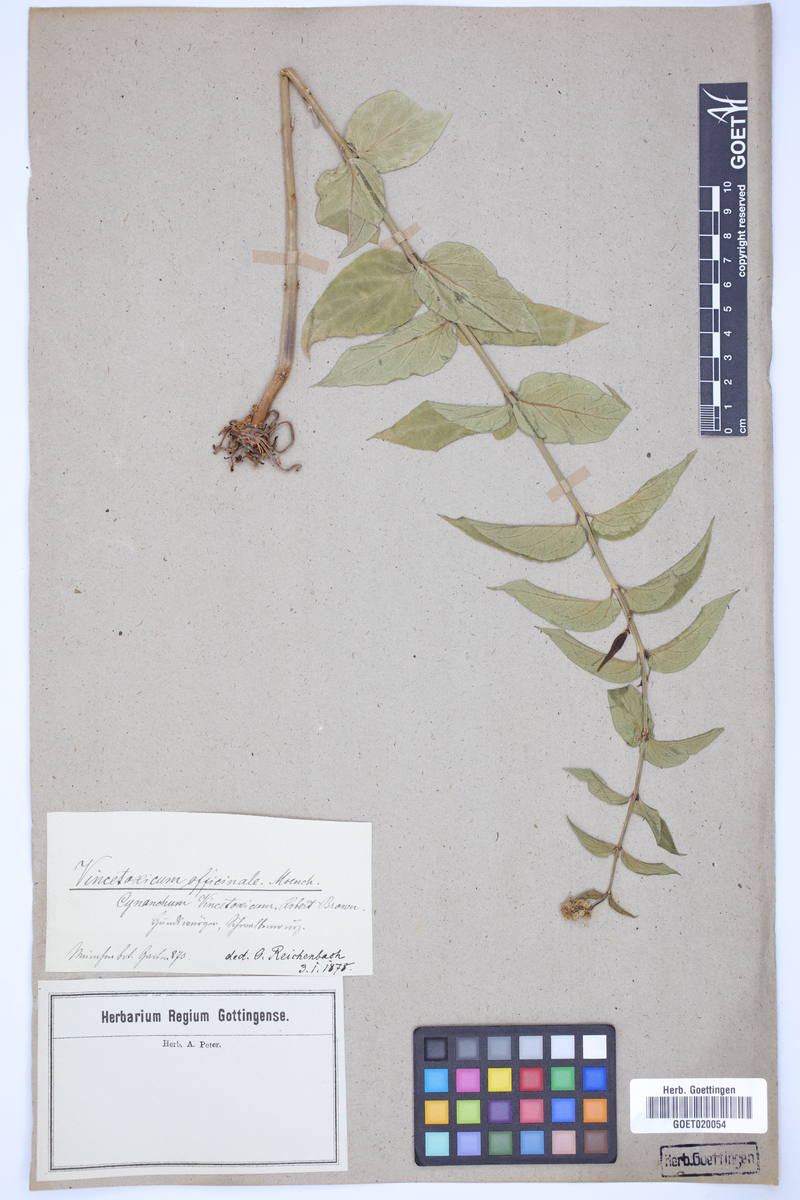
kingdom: Plantae
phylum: Tracheophyta
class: Magnoliopsida
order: Gentianales
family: Apocynaceae
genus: Vincetoxicum
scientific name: Vincetoxicum hirundinaria
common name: White swallowwort
